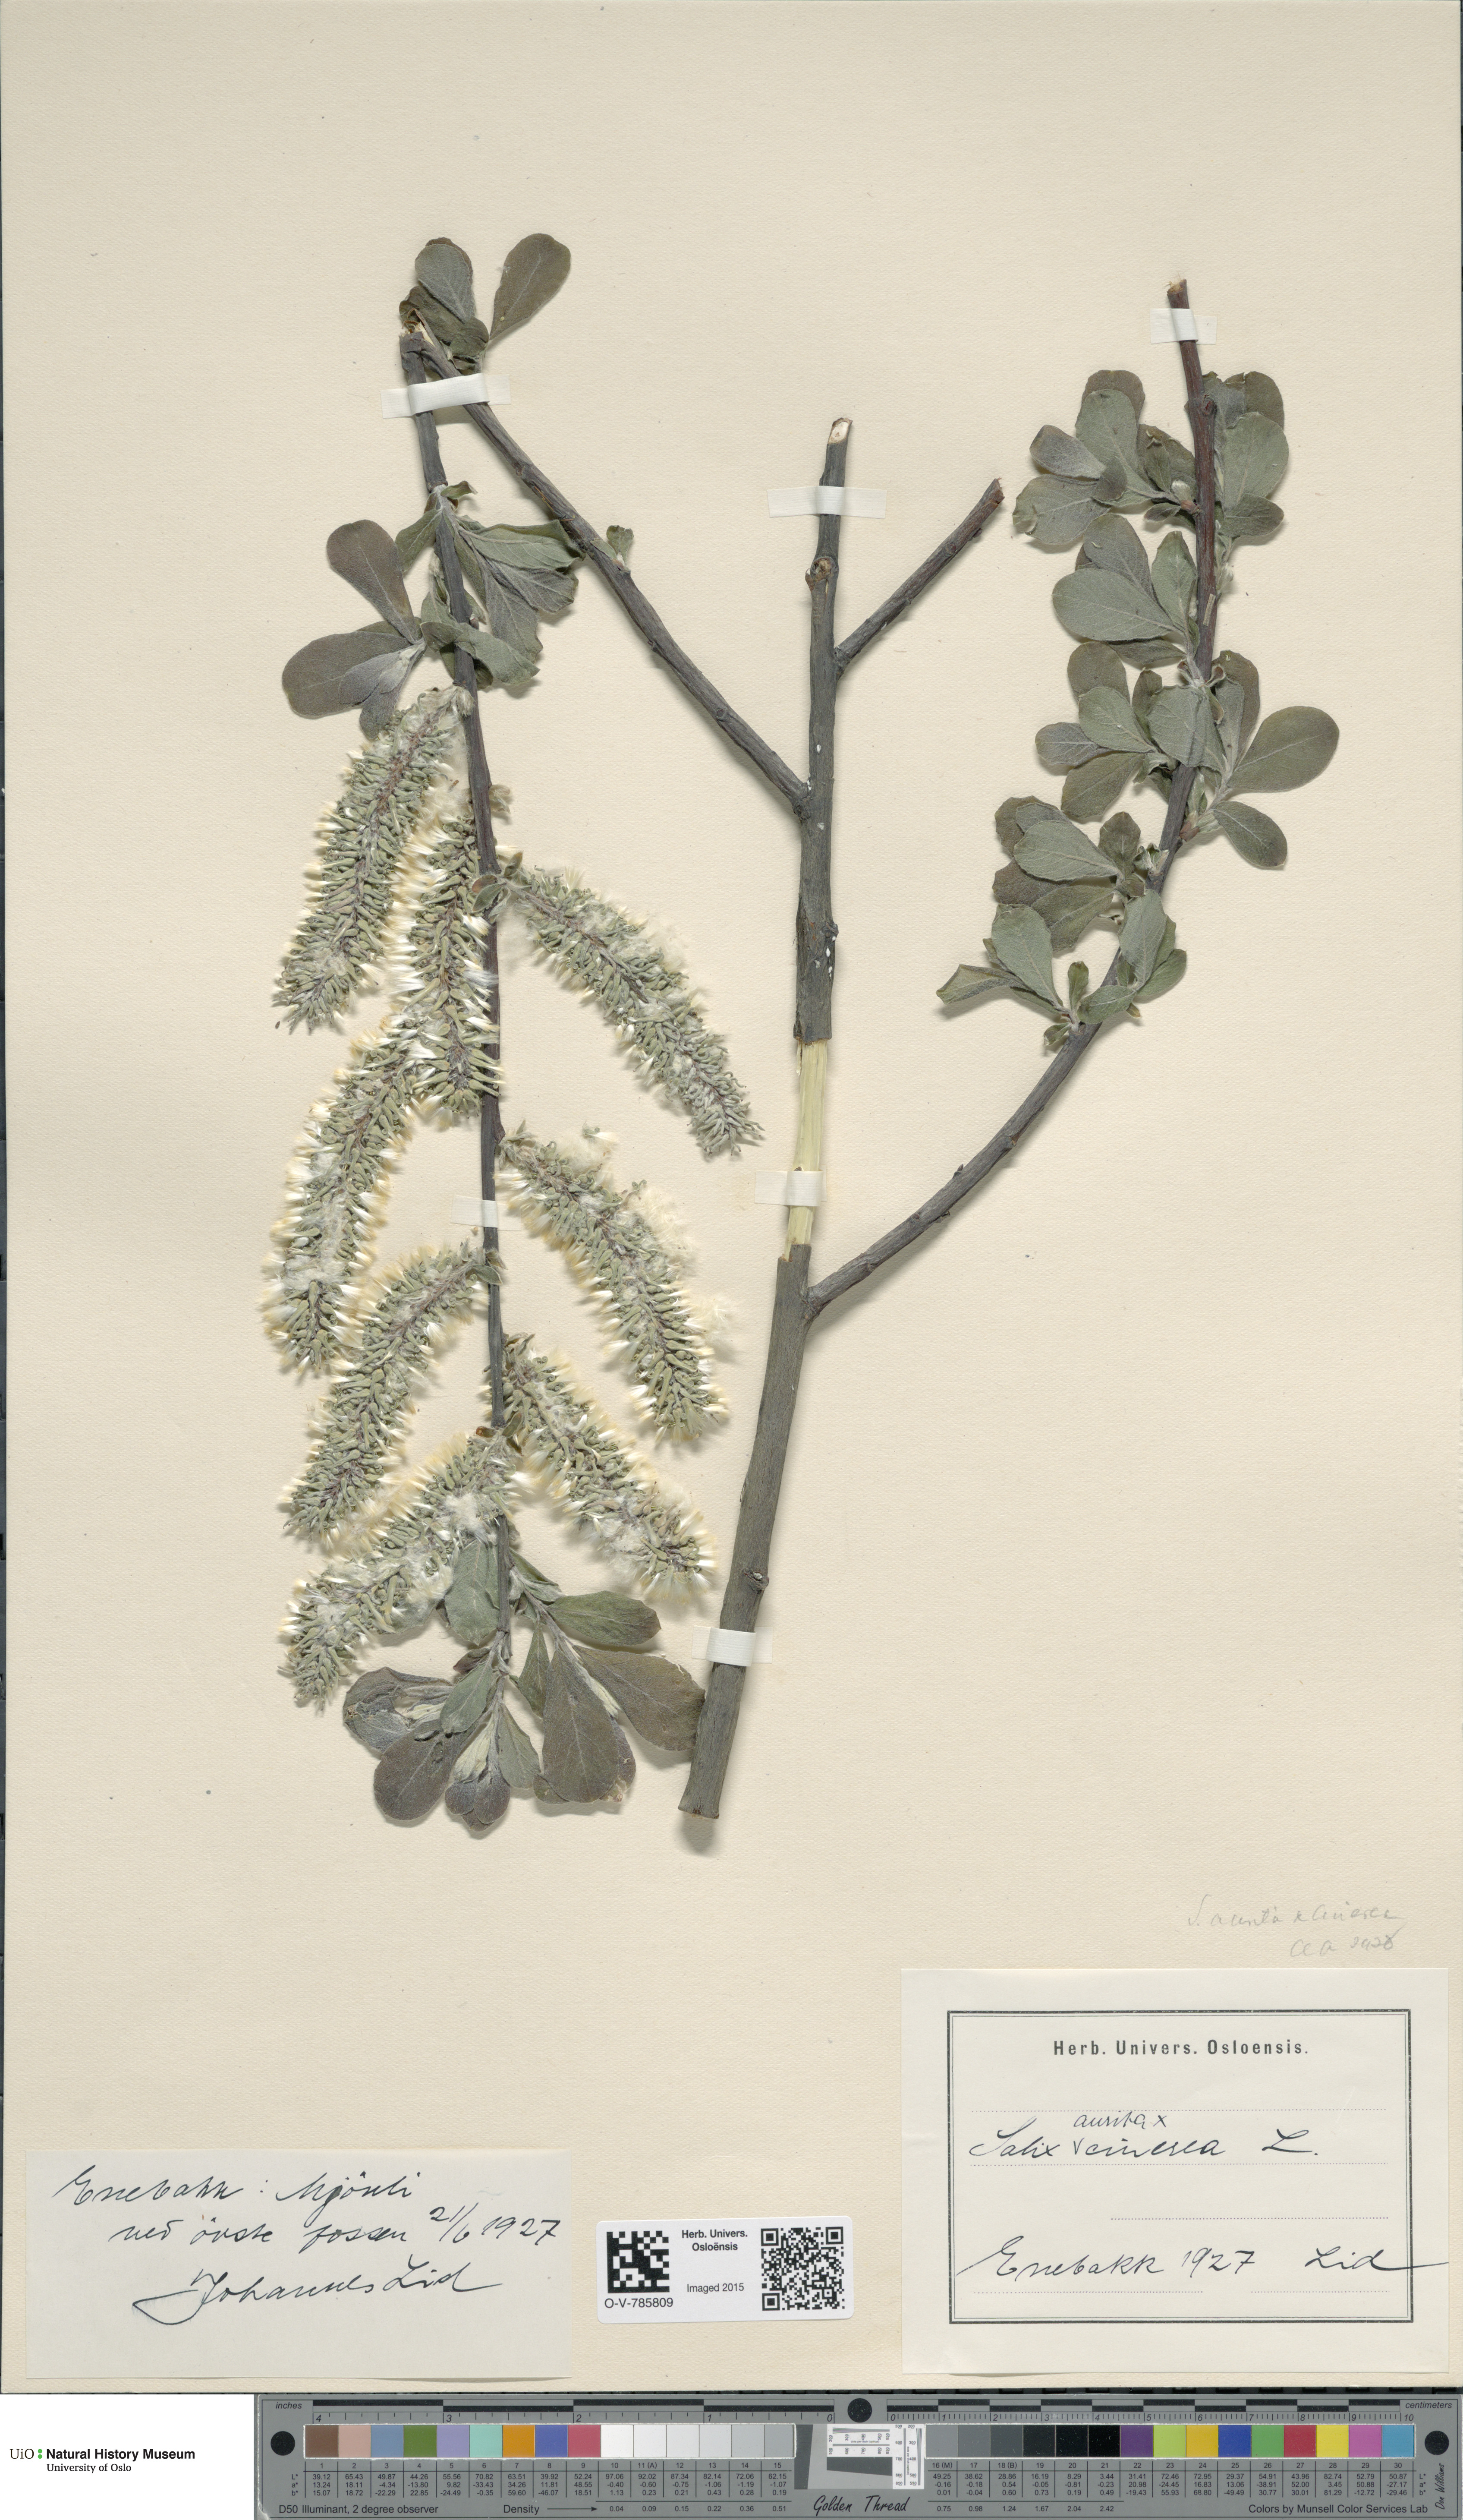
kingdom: Plantae
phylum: Tracheophyta
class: Magnoliopsida
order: Malpighiales
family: Salicaceae
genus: Salix
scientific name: Salix
